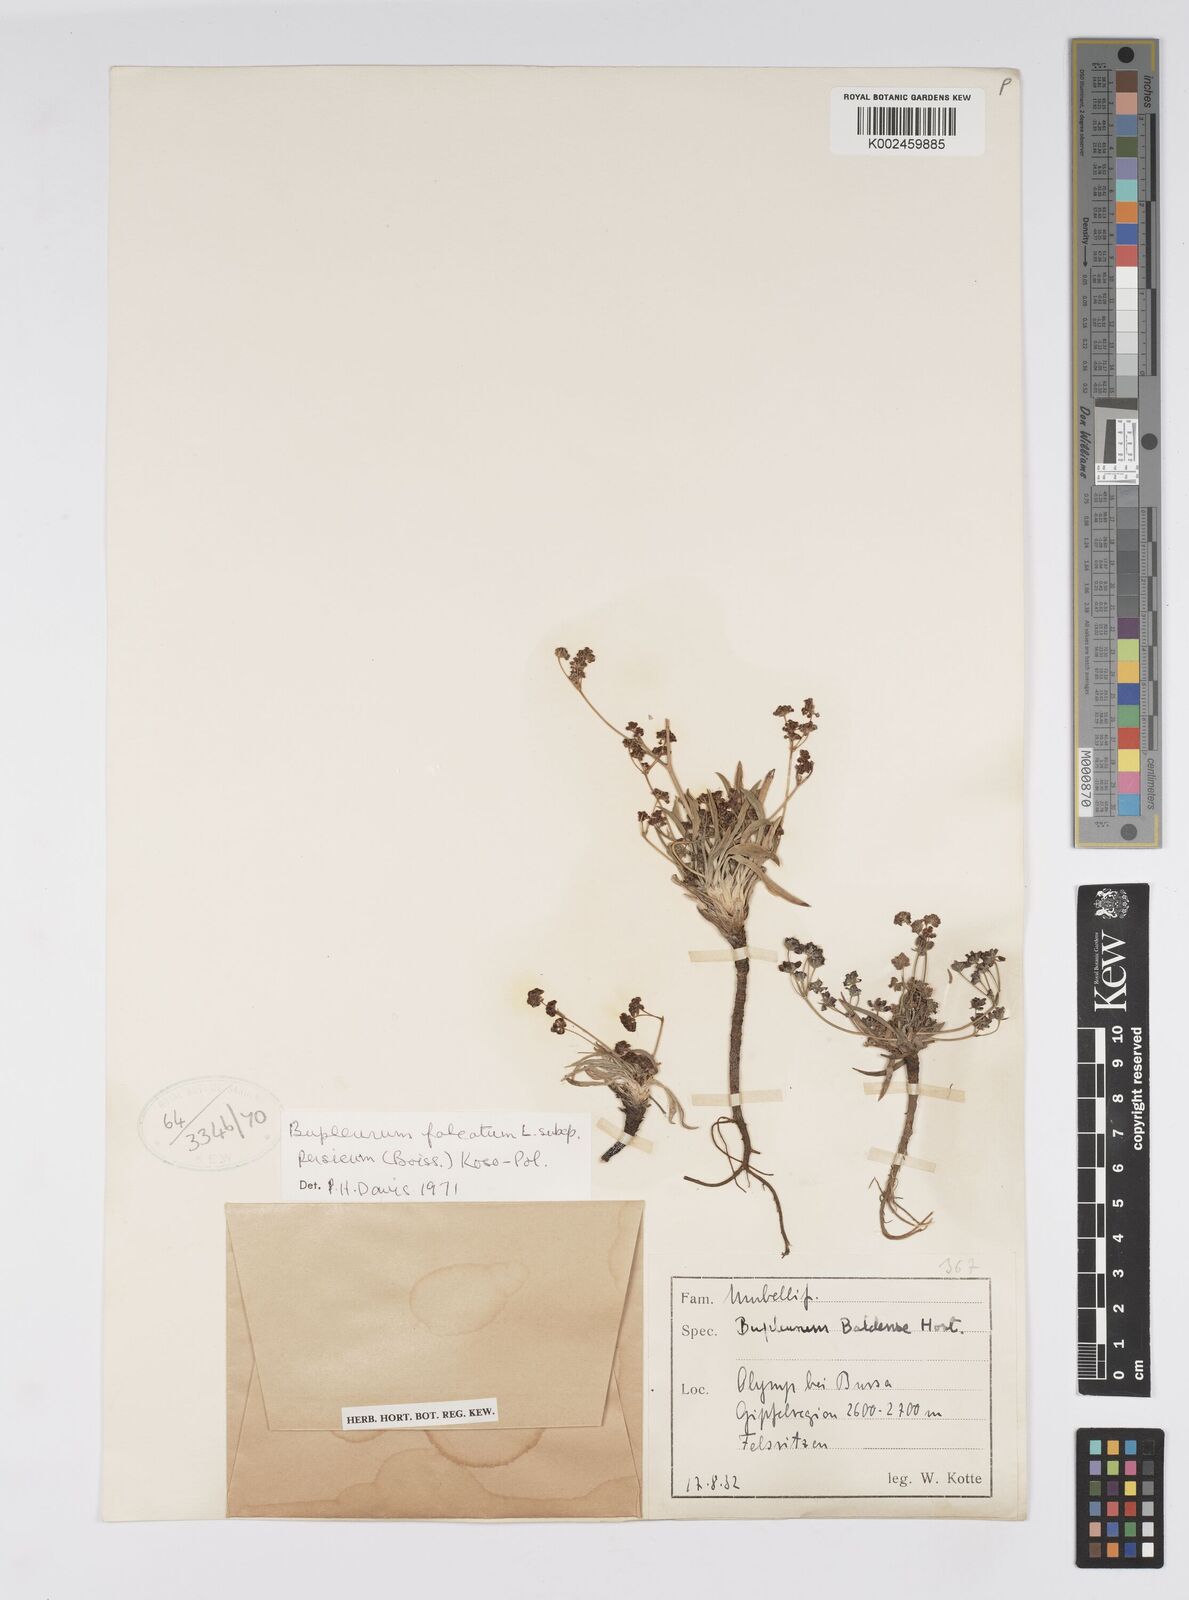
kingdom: Plantae
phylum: Tracheophyta
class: Magnoliopsida
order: Apiales
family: Apiaceae
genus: Bupleurum
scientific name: Bupleurum persicum
